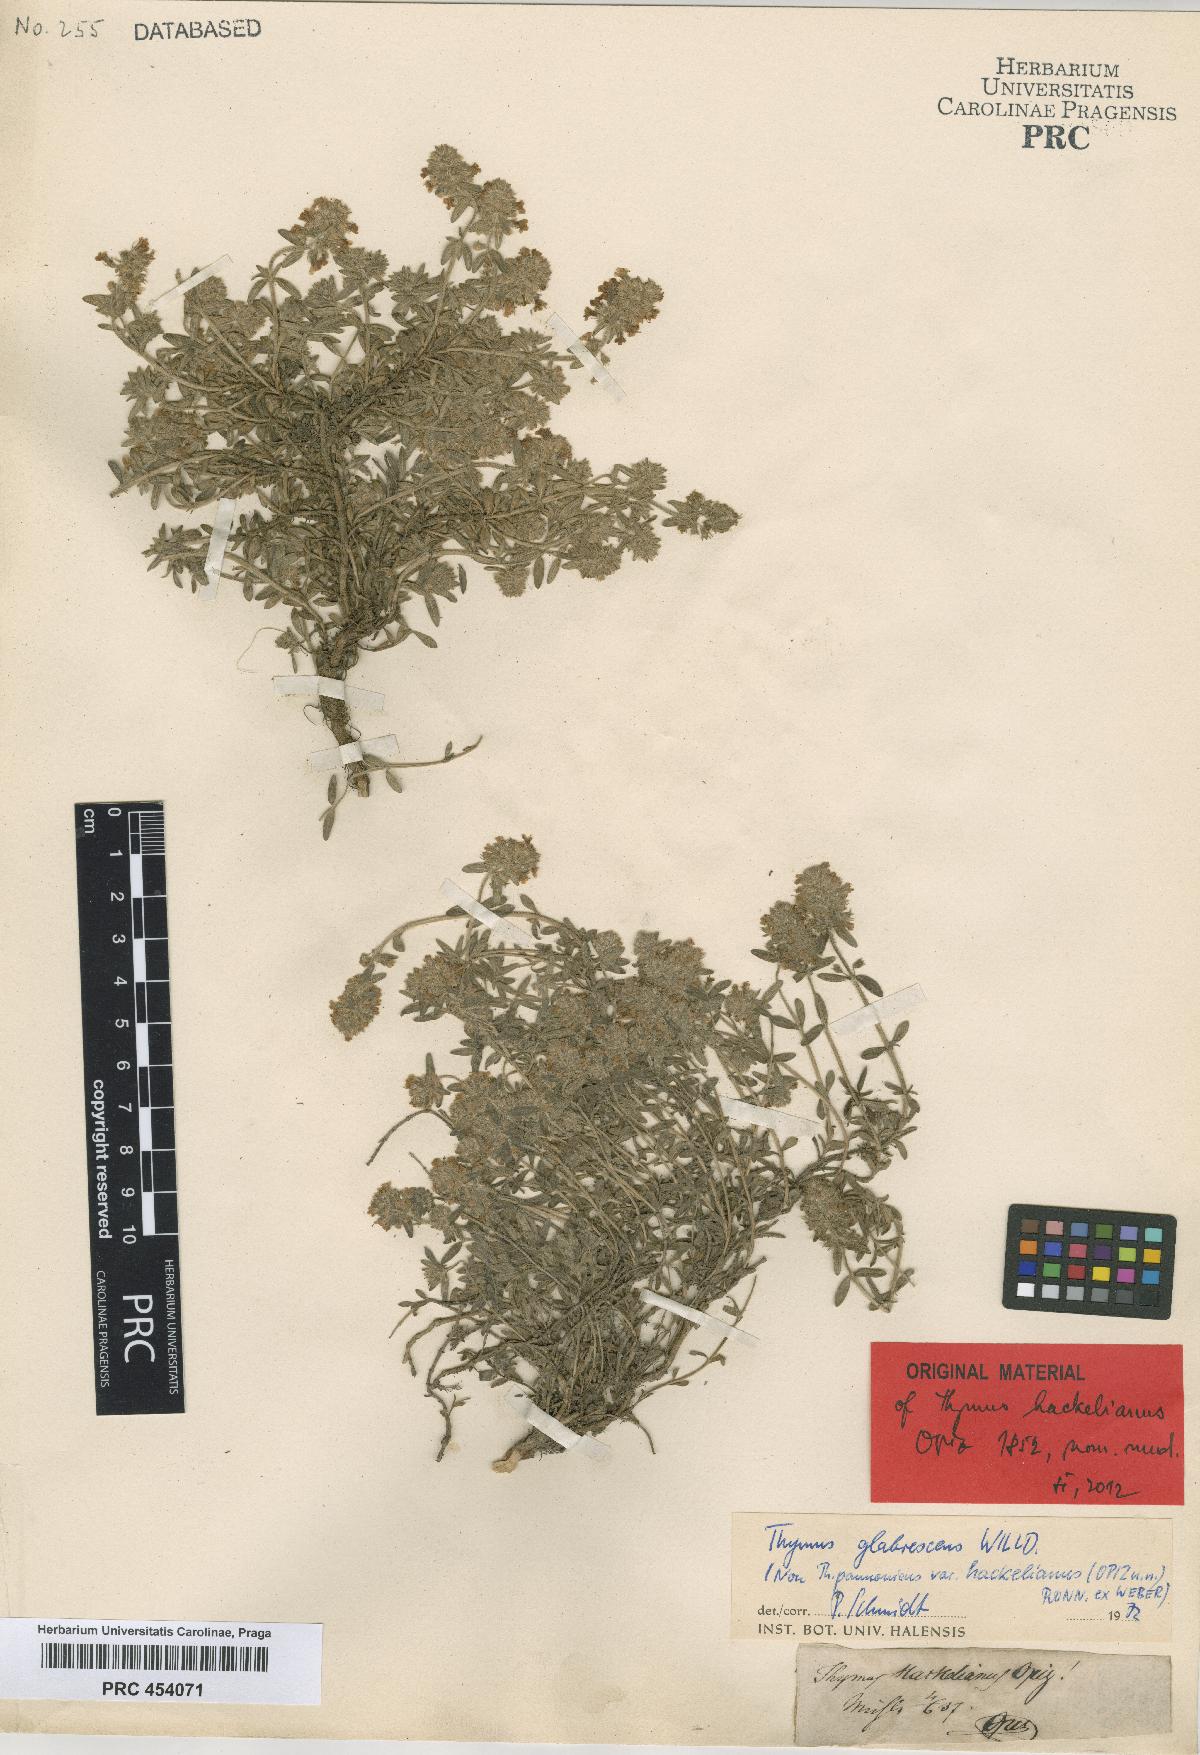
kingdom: Plantae
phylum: Tracheophyta
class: Magnoliopsida
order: Lamiales
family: Lamiaceae
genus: Thymus
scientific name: Thymus odoratissimus
